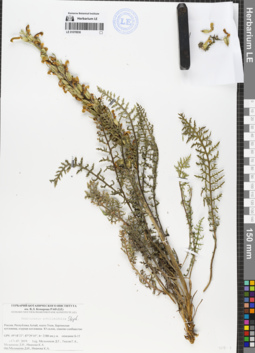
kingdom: Plantae
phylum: Tracheophyta
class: Magnoliopsida
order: Lamiales
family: Orobanchaceae
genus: Pedicularis
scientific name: Pedicularis achilleifolia
